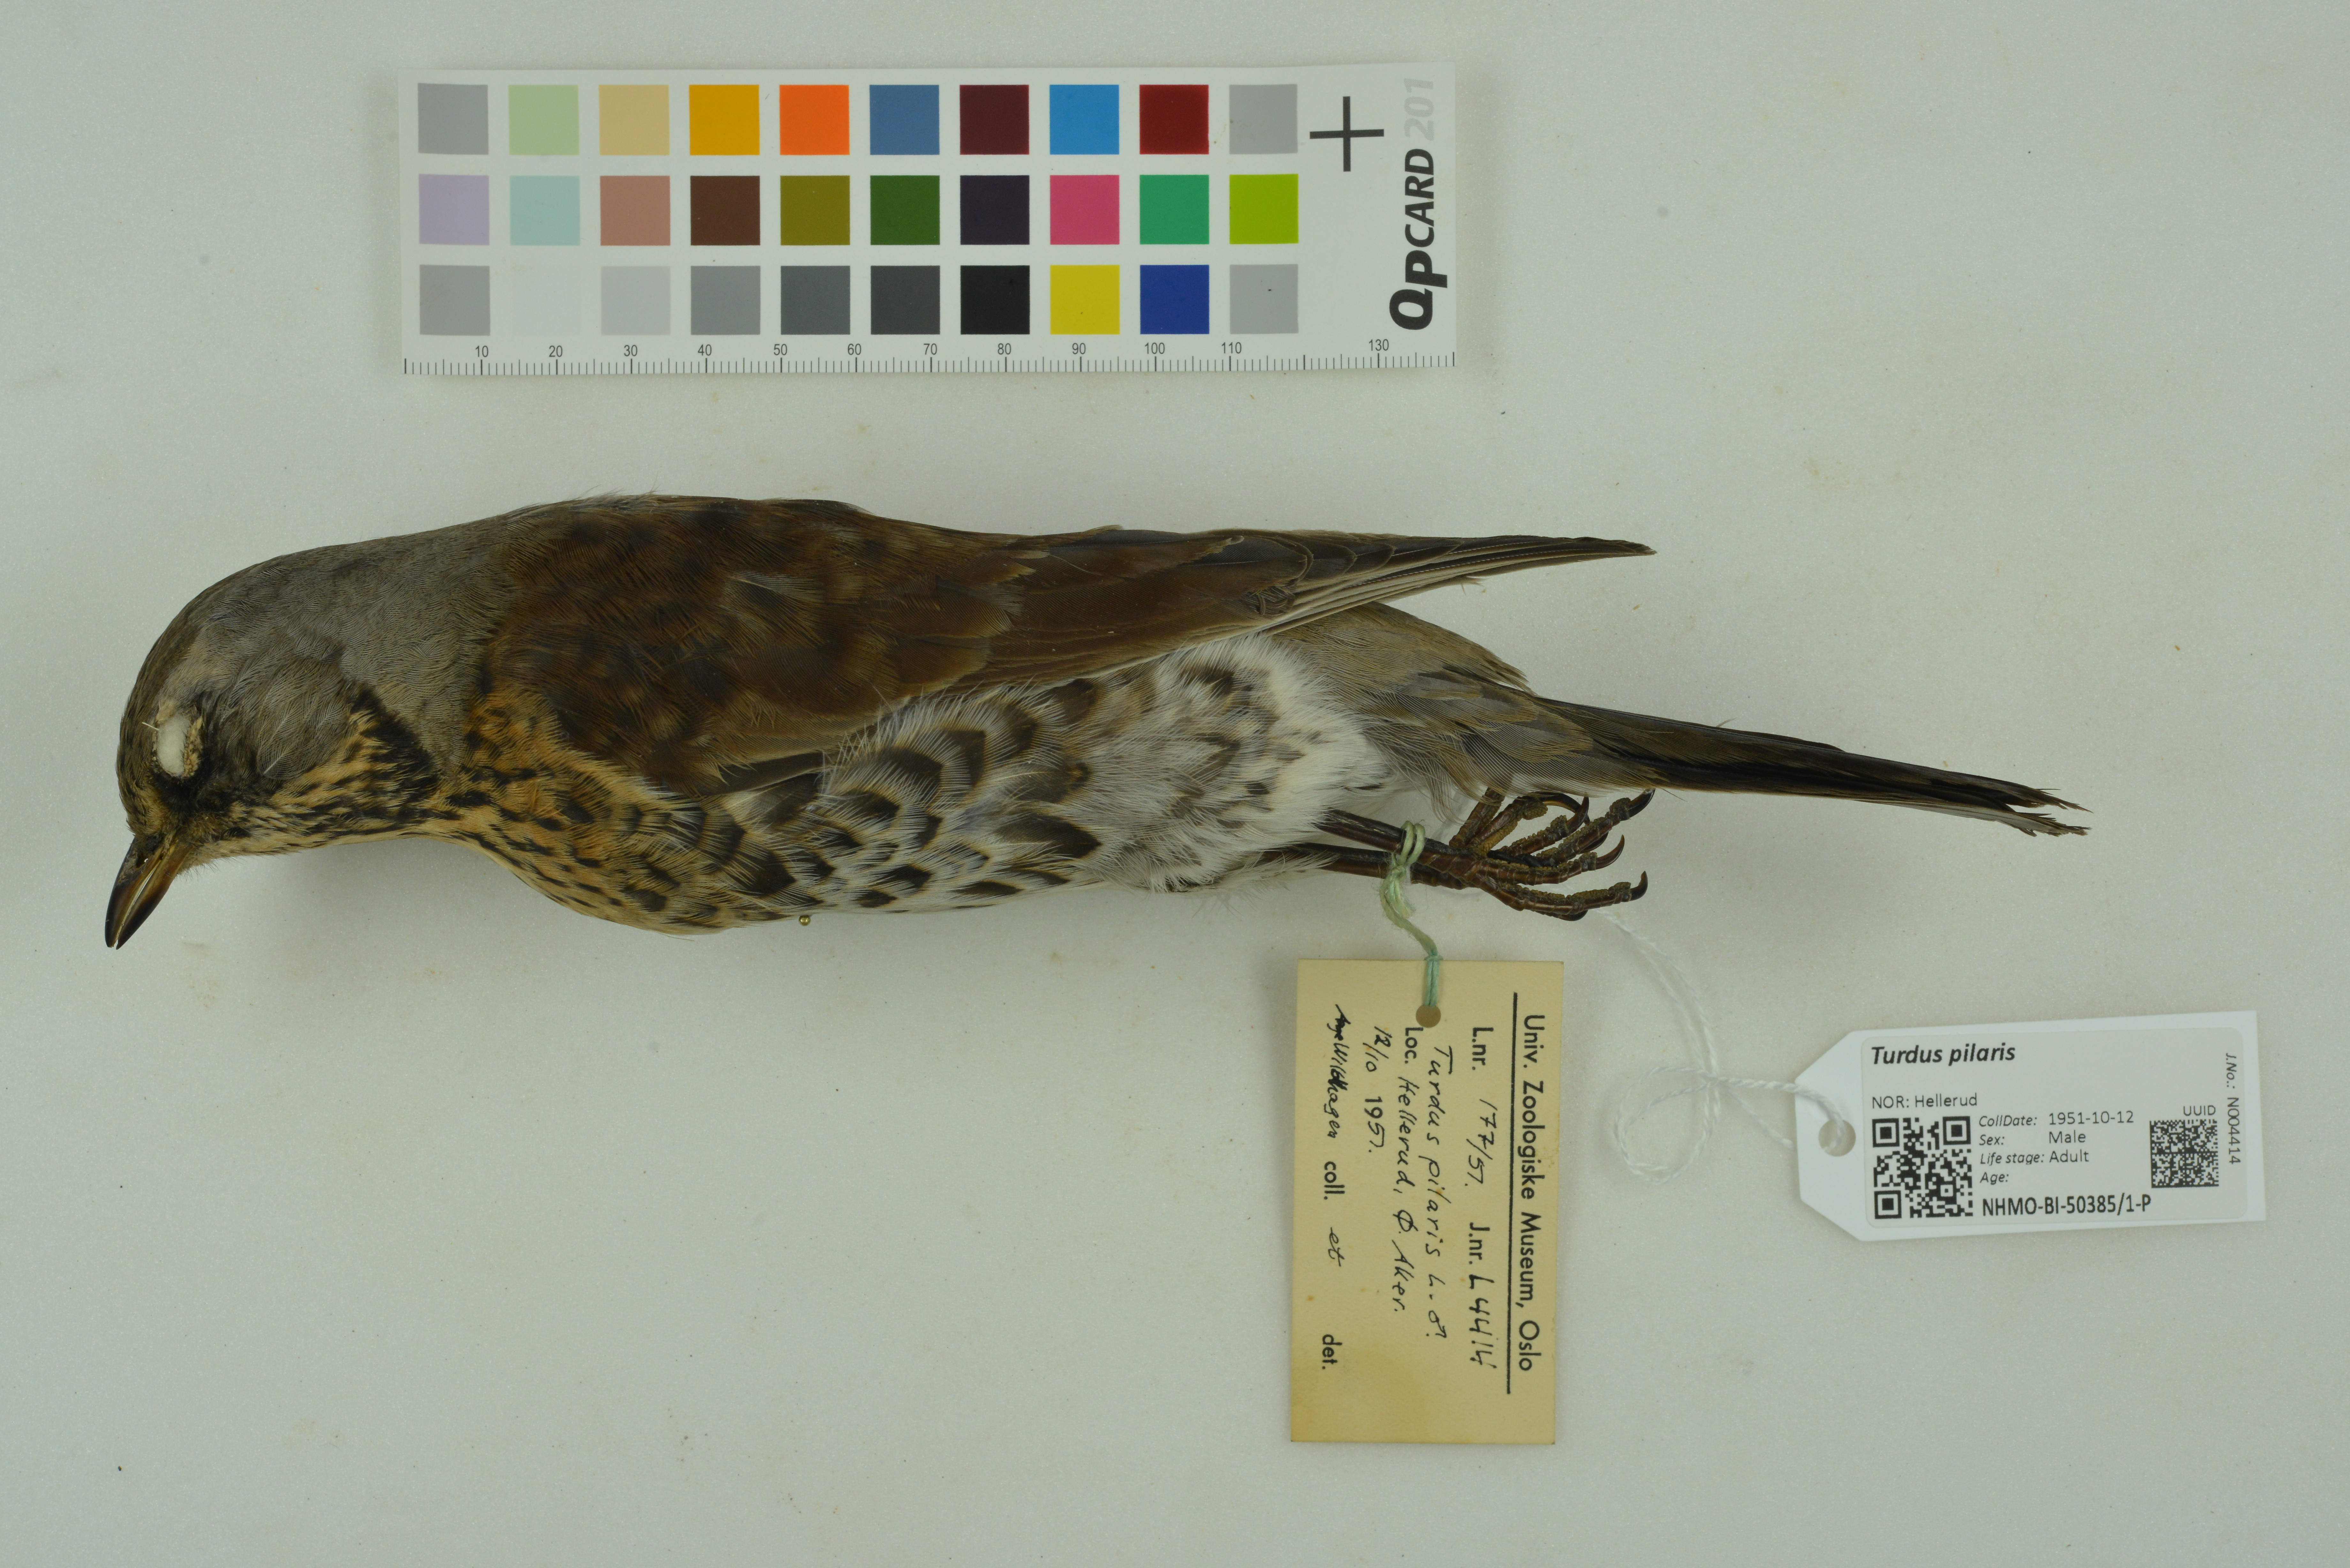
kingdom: Animalia
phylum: Chordata
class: Aves
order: Passeriformes
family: Turdidae
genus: Turdus
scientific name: Turdus pilaris
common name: Fieldfare
